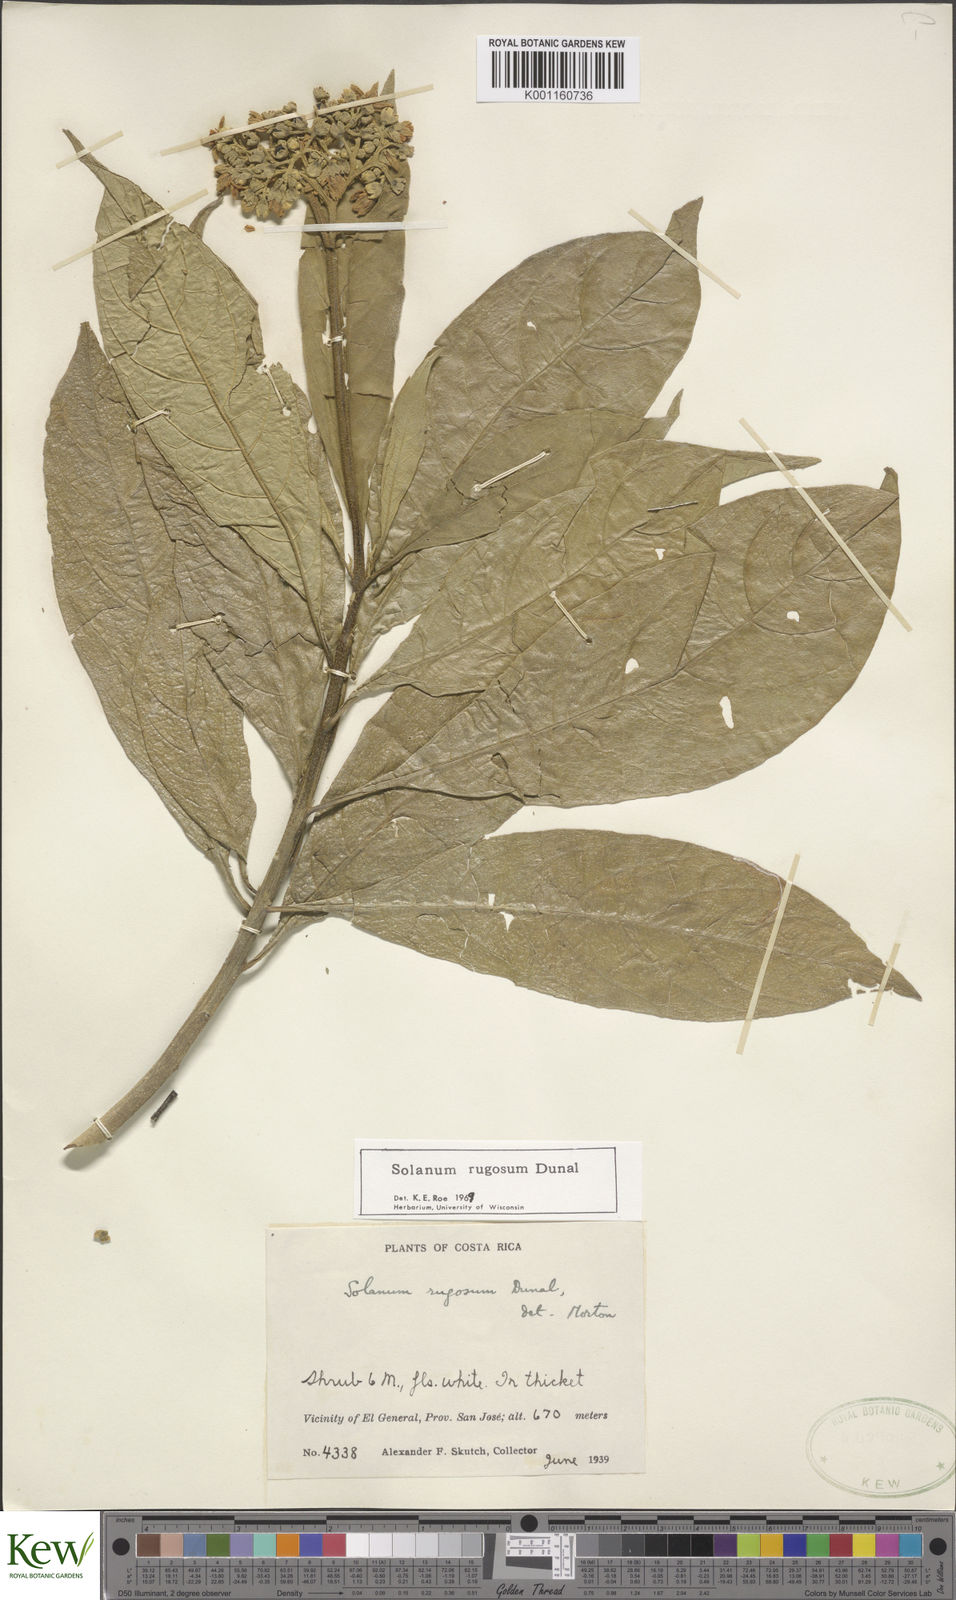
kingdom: Plantae
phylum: Tracheophyta
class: Magnoliopsida
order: Solanales
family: Solanaceae
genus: Solanum
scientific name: Solanum rugosum
